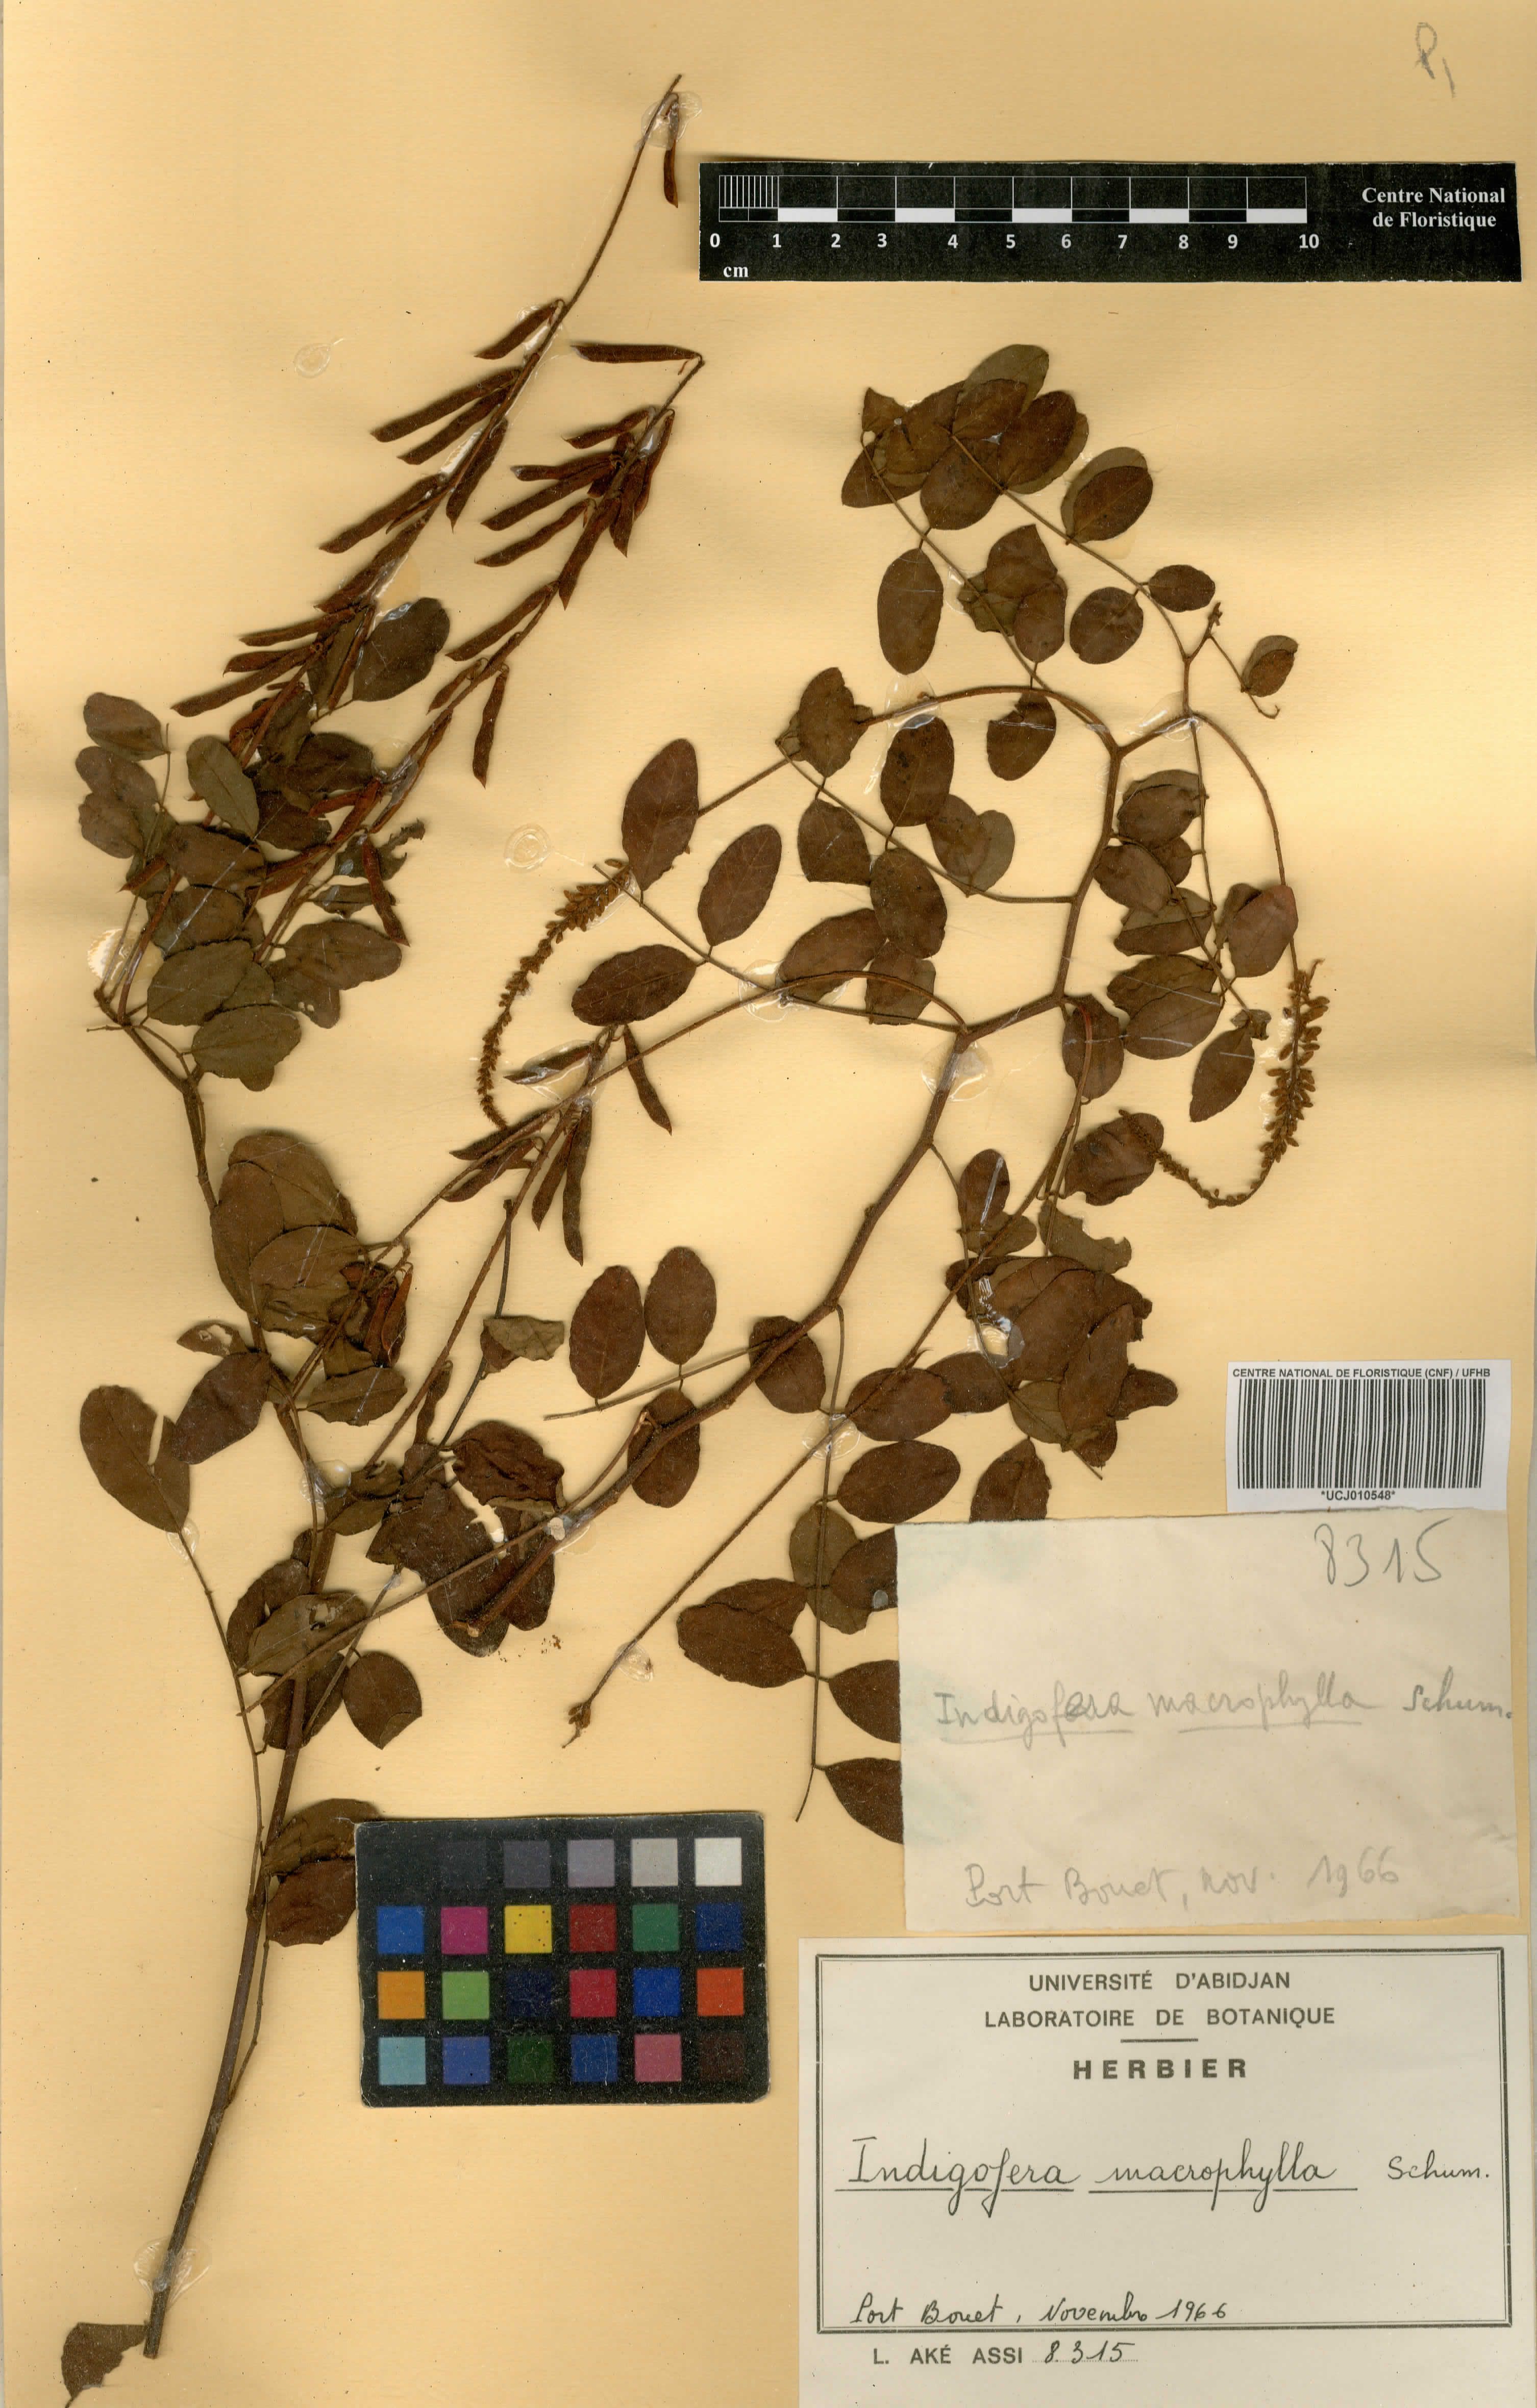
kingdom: Plantae
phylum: Tracheophyta
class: Magnoliopsida
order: Fabales
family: Fabaceae
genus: Indigofera
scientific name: Indigofera macrophylla
